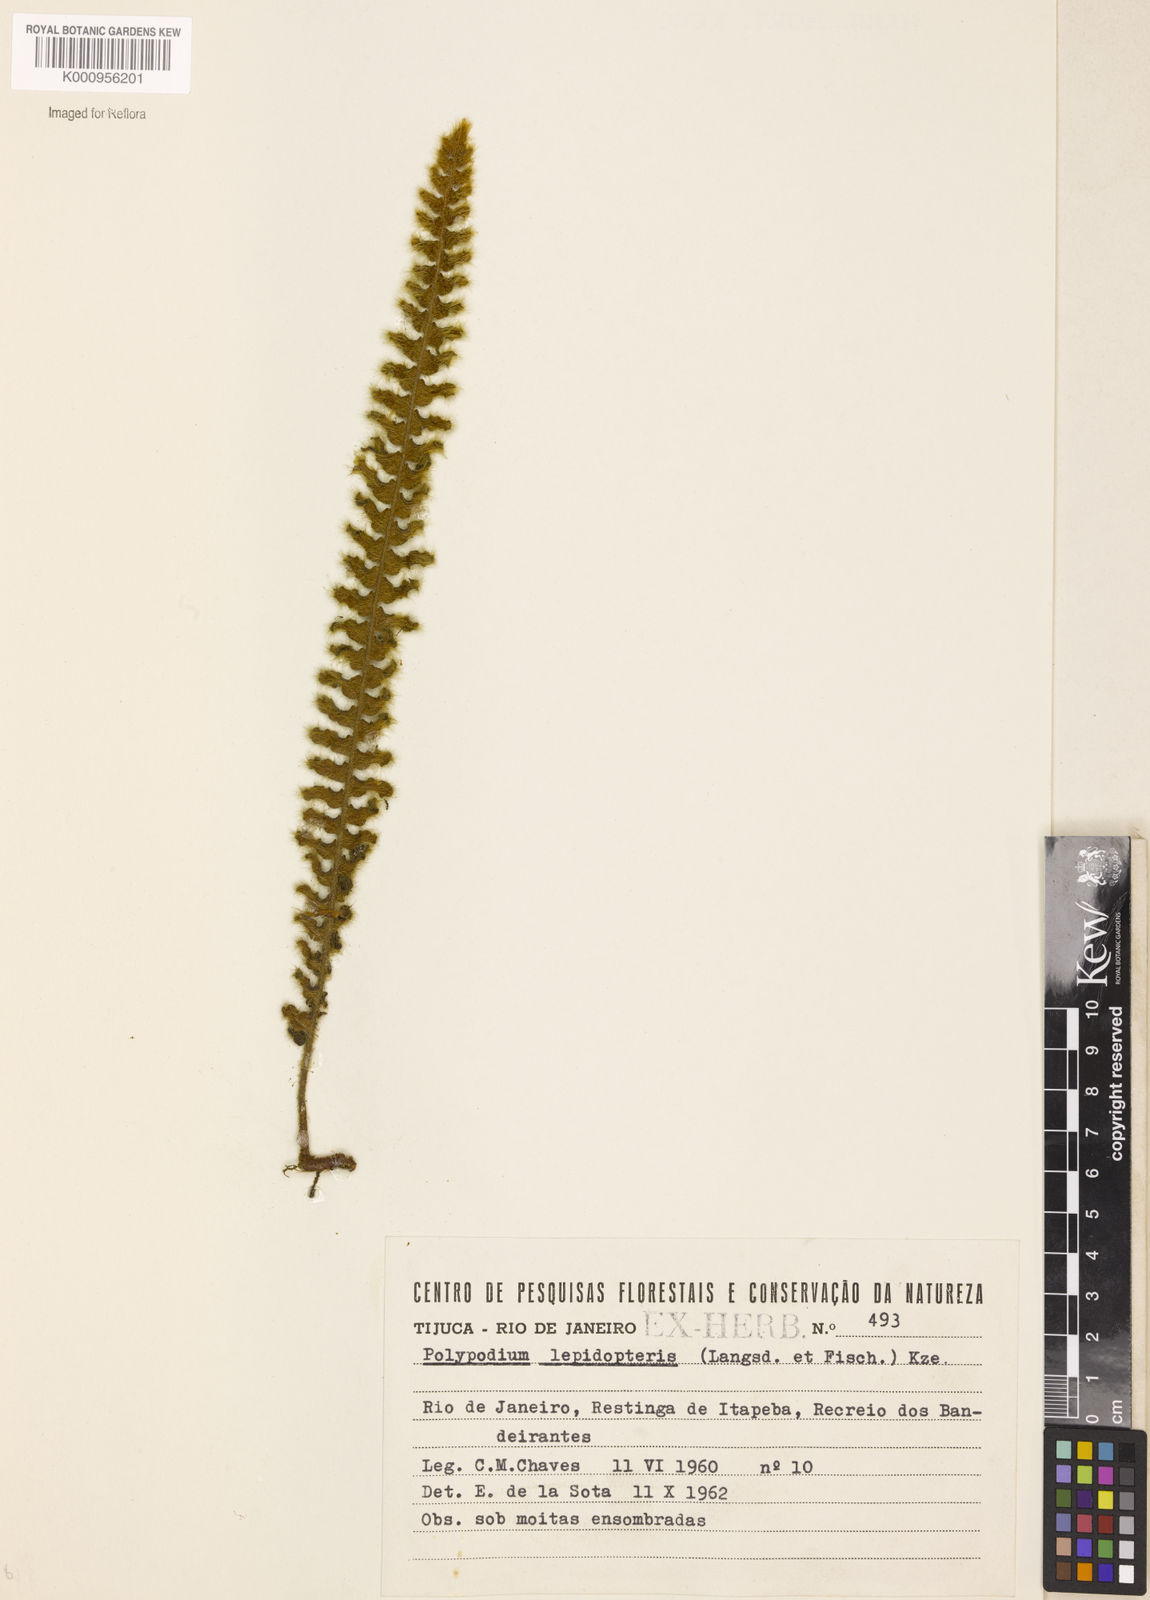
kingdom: Plantae
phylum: Tracheophyta
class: Polypodiopsida
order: Polypodiales
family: Polypodiaceae
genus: Pleopeltis
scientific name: Pleopeltis lepidopteris
